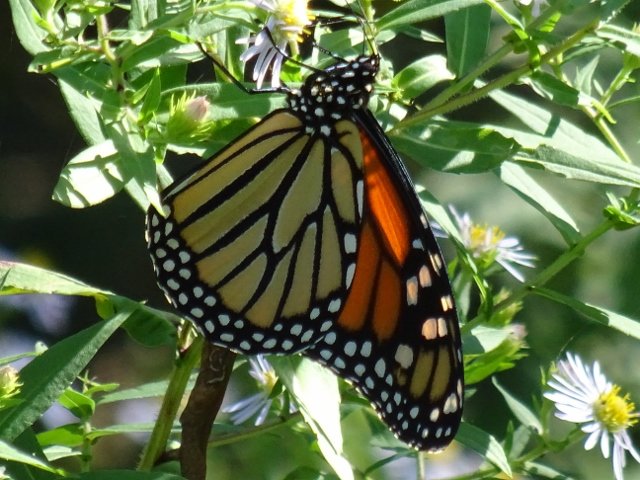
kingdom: Animalia
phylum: Arthropoda
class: Insecta
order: Lepidoptera
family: Nymphalidae
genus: Danaus
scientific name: Danaus plexippus
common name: Monarch
